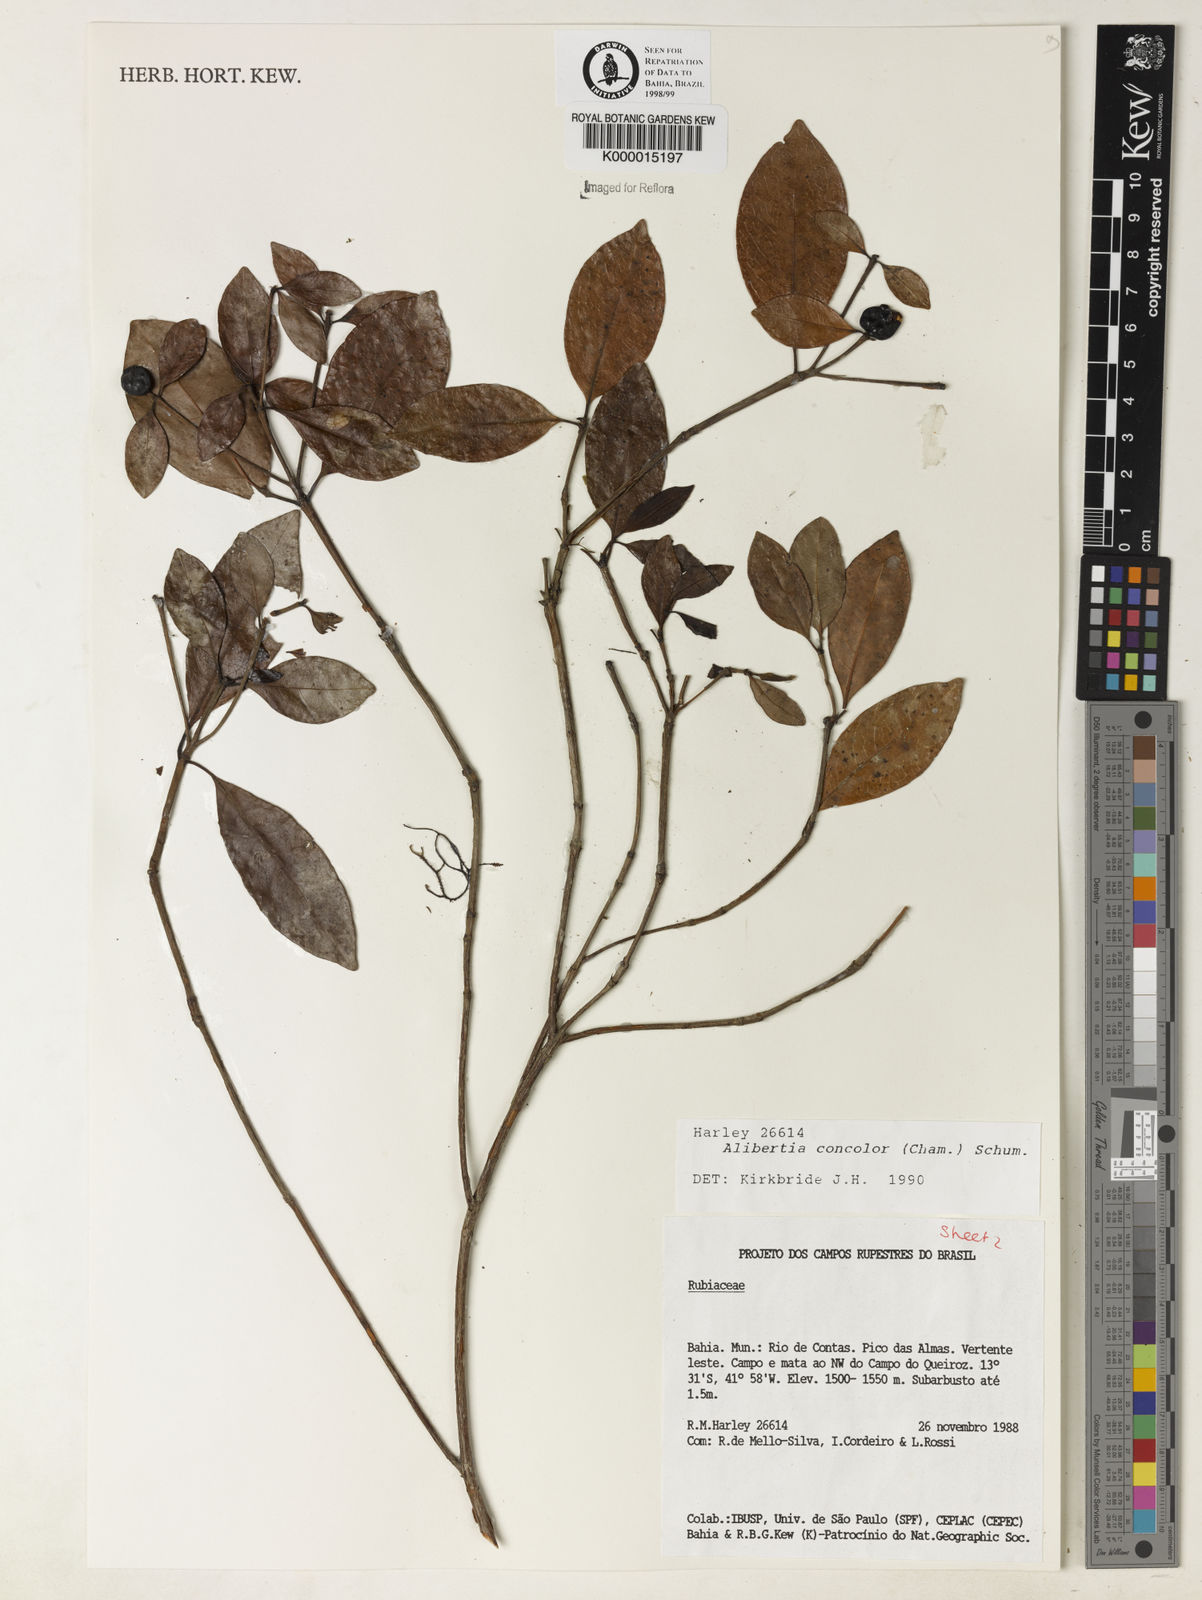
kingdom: Plantae
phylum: Tracheophyta
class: Magnoliopsida
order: Gentianales
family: Rubiaceae
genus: Cordiera
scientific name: Cordiera concolor
